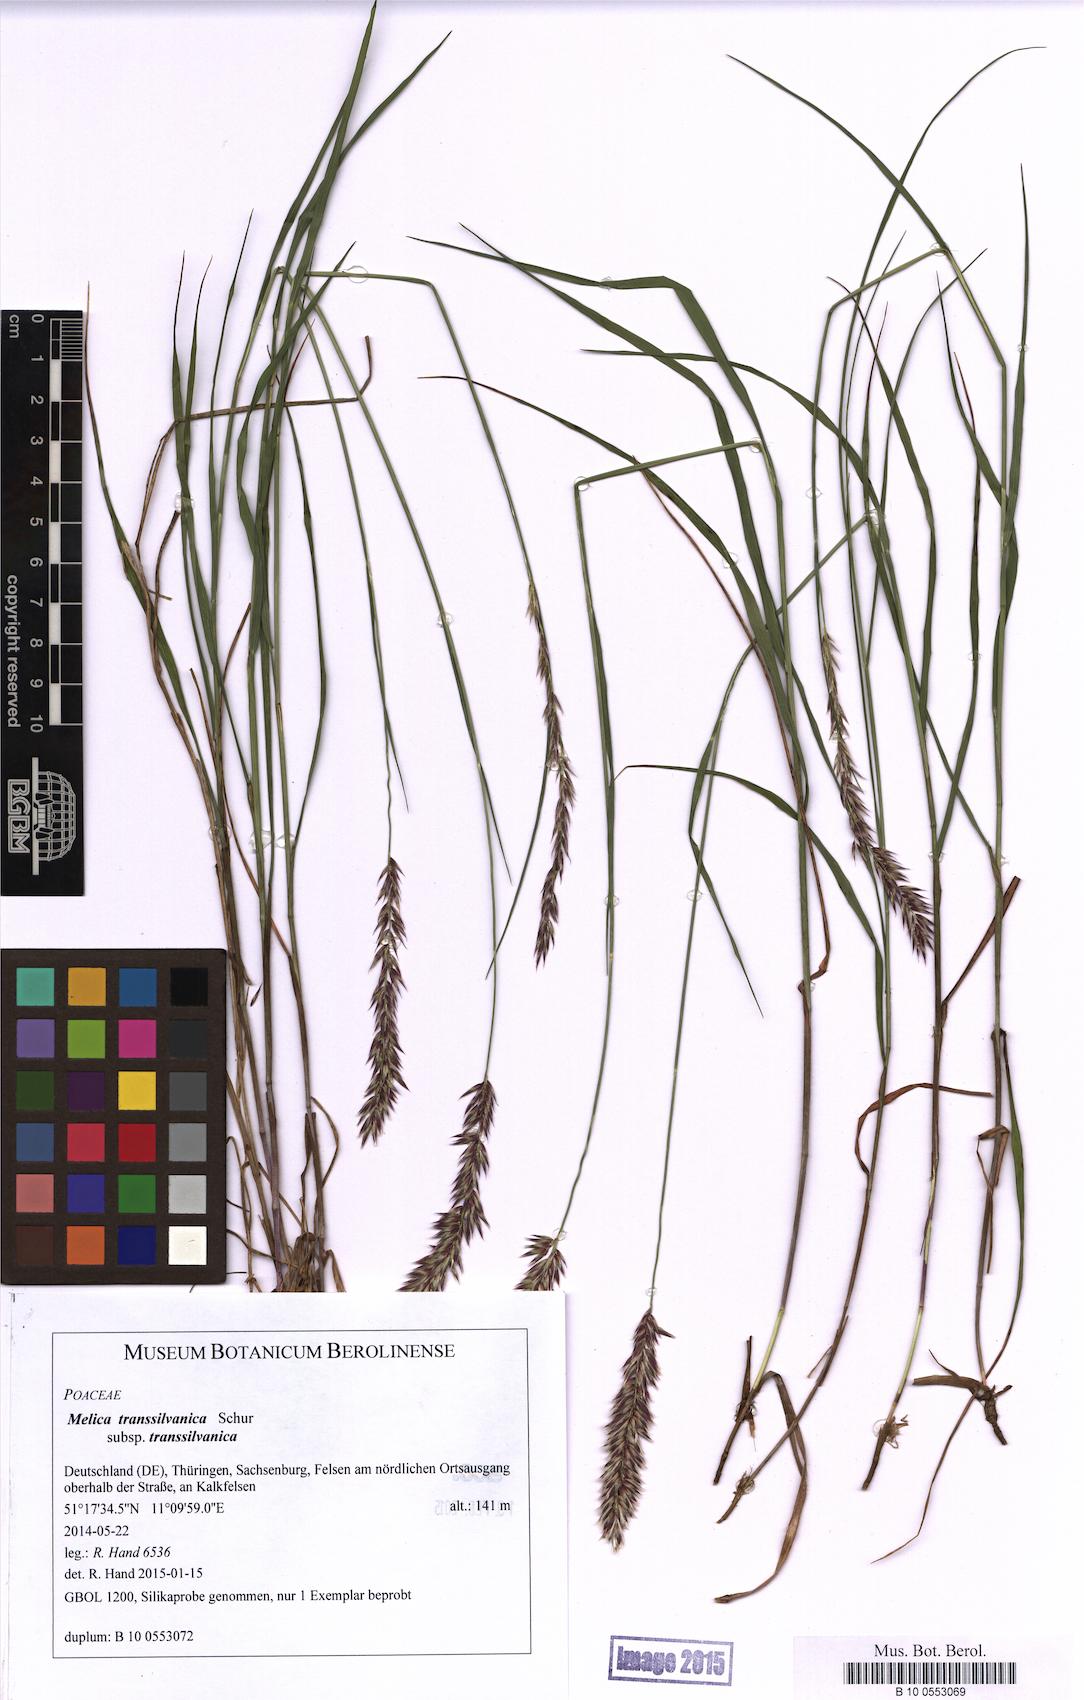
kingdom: Plantae
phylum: Tracheophyta
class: Liliopsida
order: Poales
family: Poaceae
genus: Melica
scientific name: Melica transsilvanica
